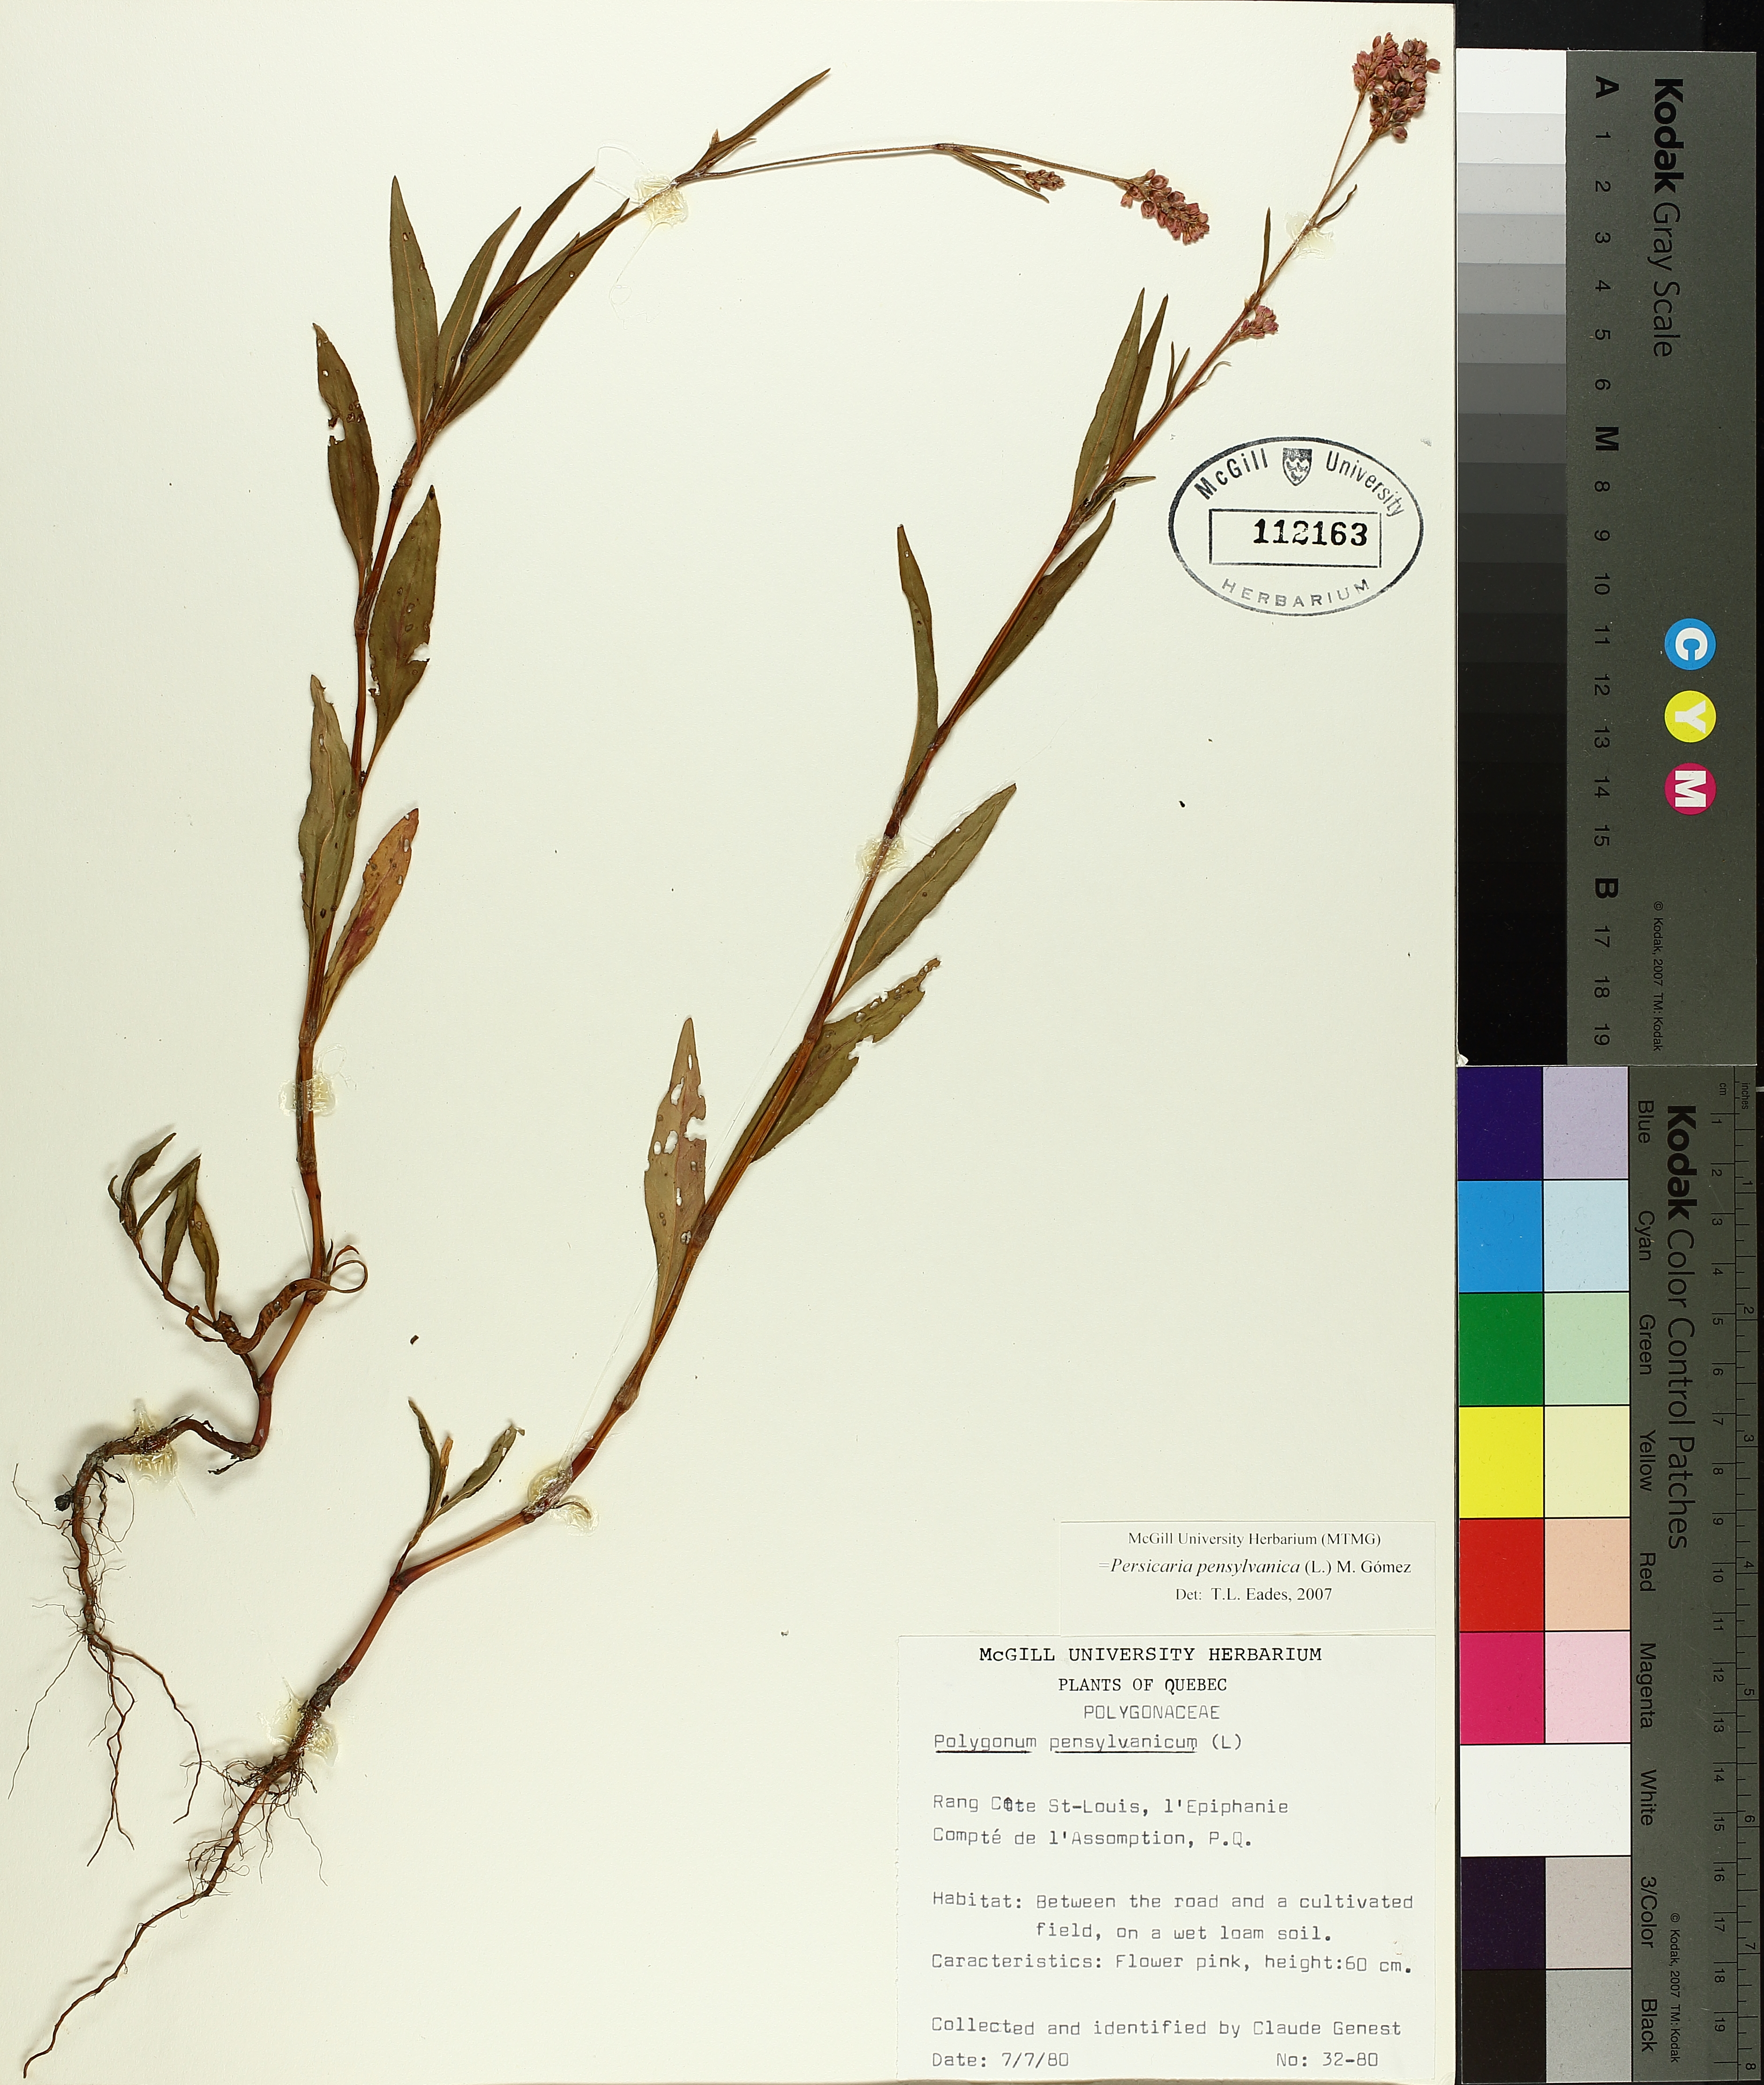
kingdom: Plantae
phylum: Tracheophyta
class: Magnoliopsida
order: Caryophyllales
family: Polygonaceae
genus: Persicaria
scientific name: Persicaria bungeana
